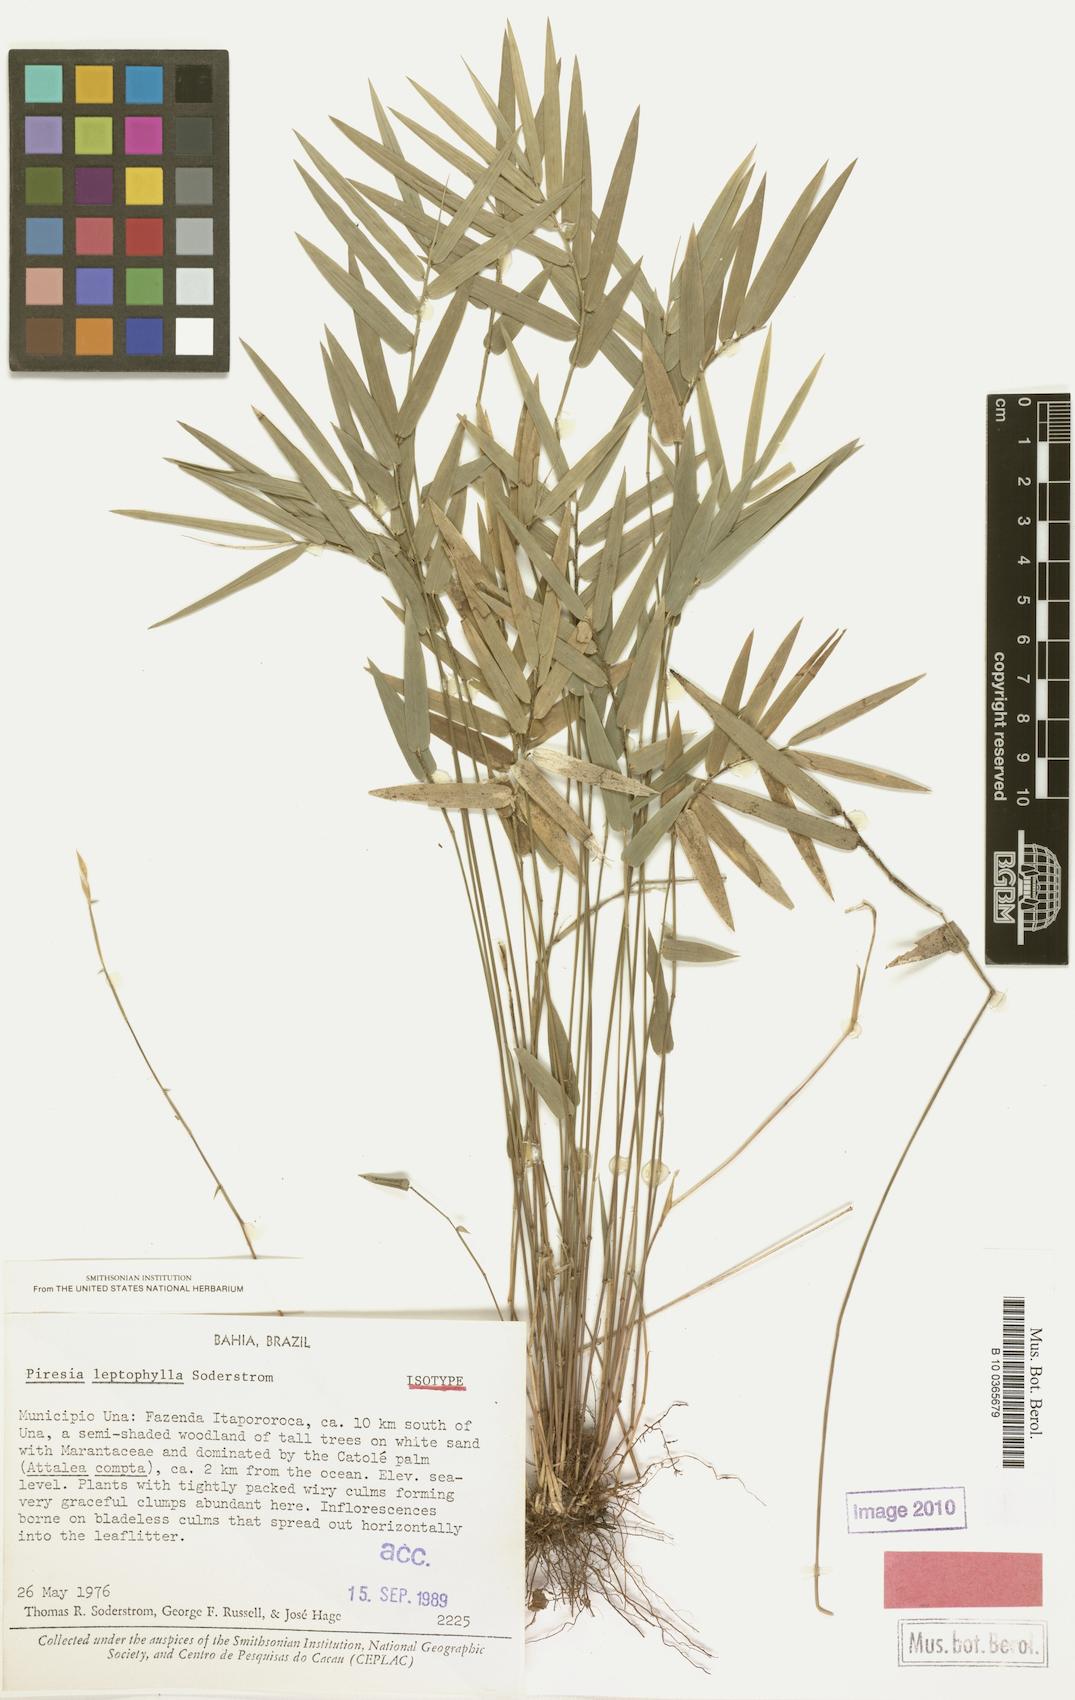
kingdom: Plantae
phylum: Tracheophyta
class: Liliopsida
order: Poales
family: Poaceae
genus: Piresia
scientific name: Piresia leptophylla
